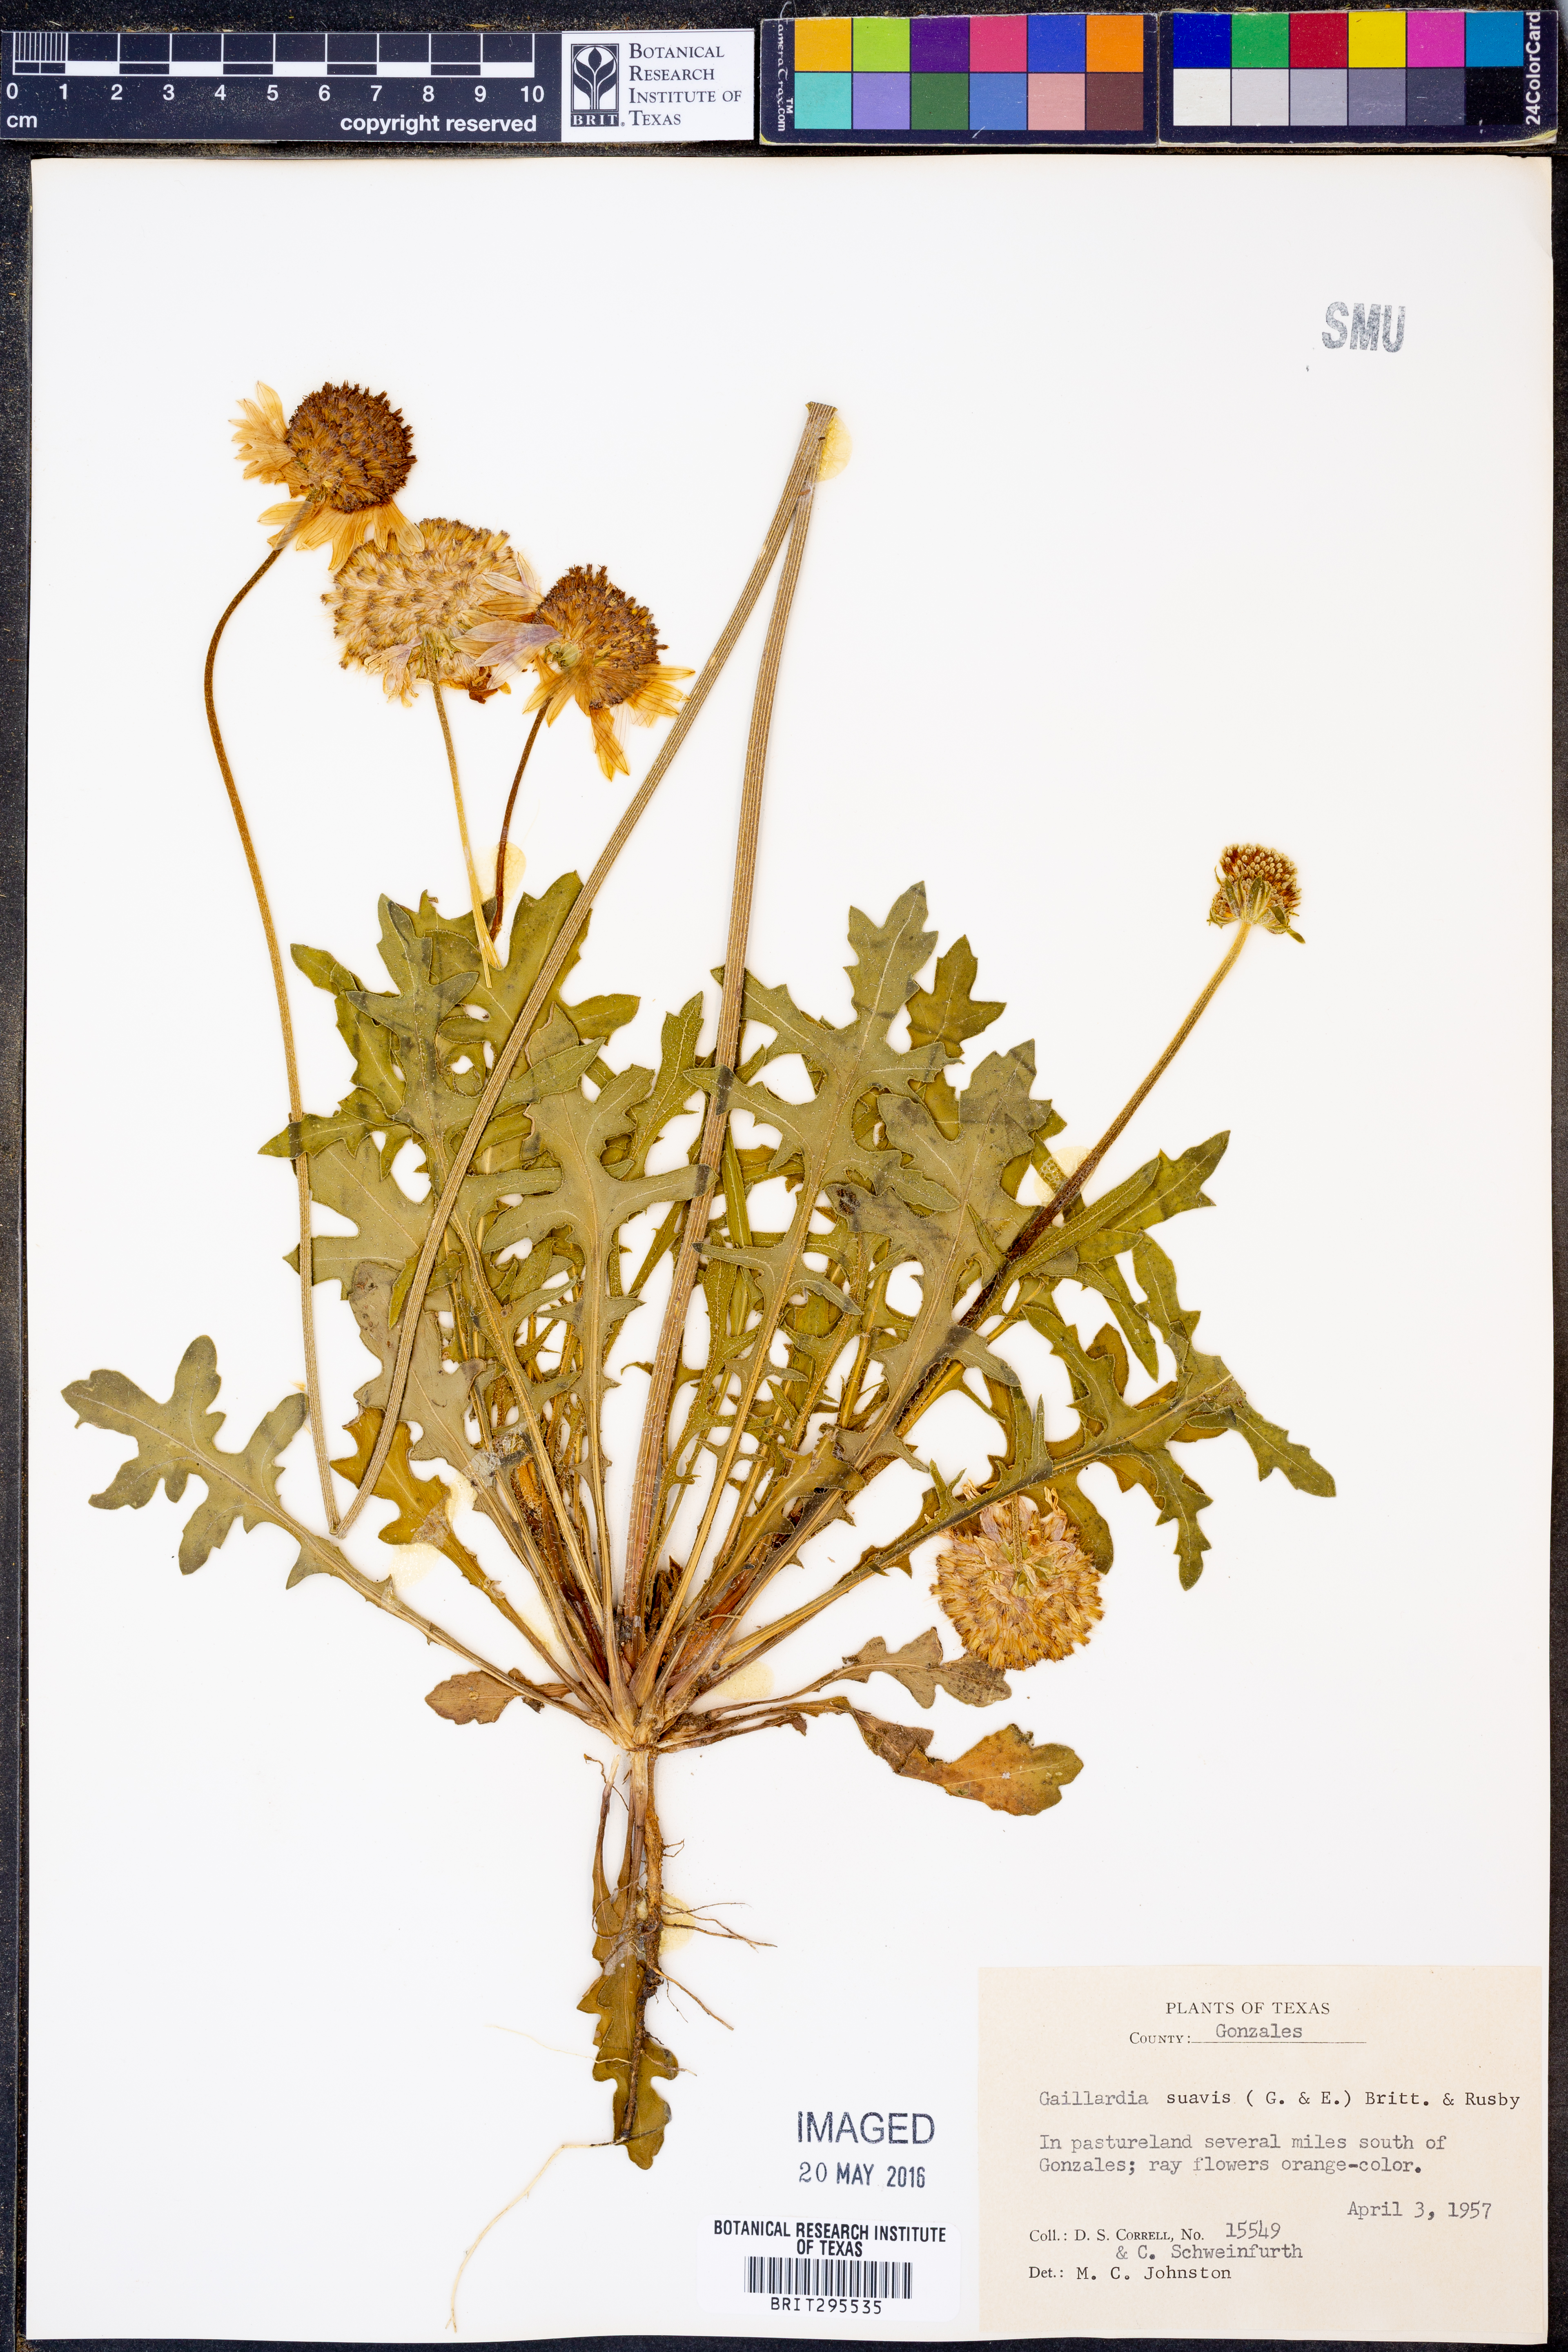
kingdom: Plantae
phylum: Tracheophyta
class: Magnoliopsida
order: Asterales
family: Asteraceae
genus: Gaillardia
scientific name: Gaillardia suavis
